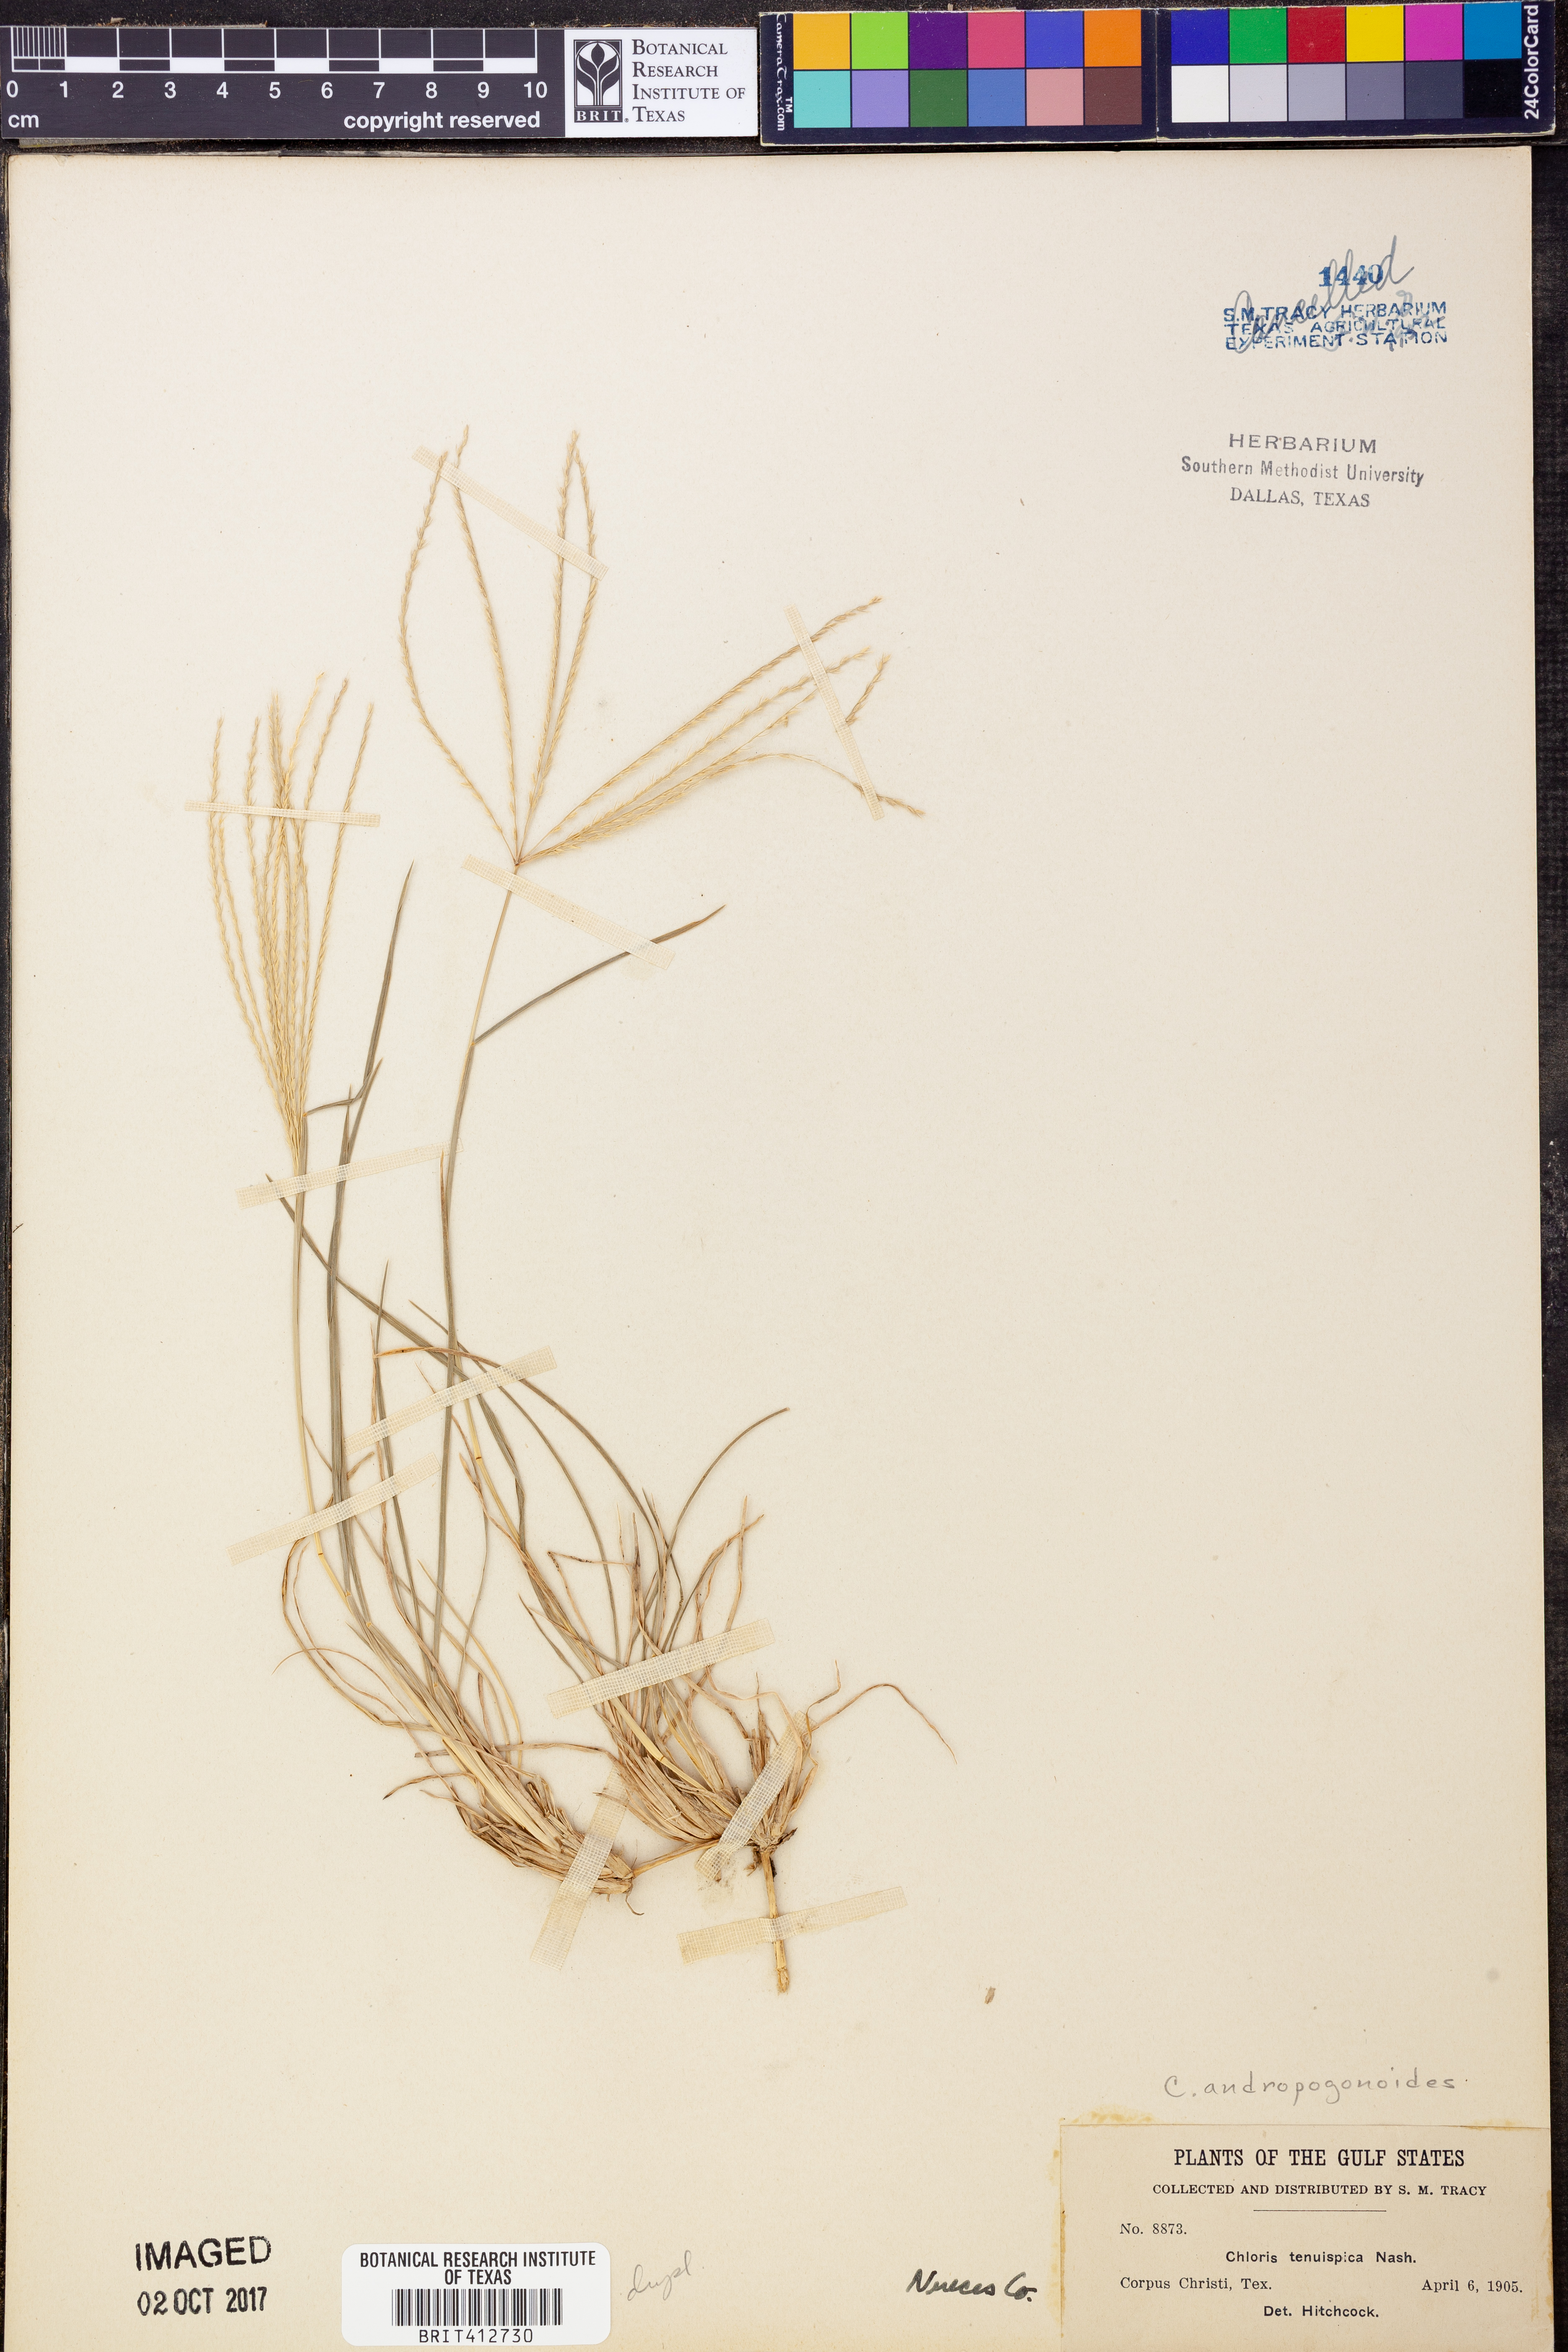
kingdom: Plantae
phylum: Tracheophyta
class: Liliopsida
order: Poales
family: Poaceae
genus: Chloris
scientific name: Chloris andropogonoides
